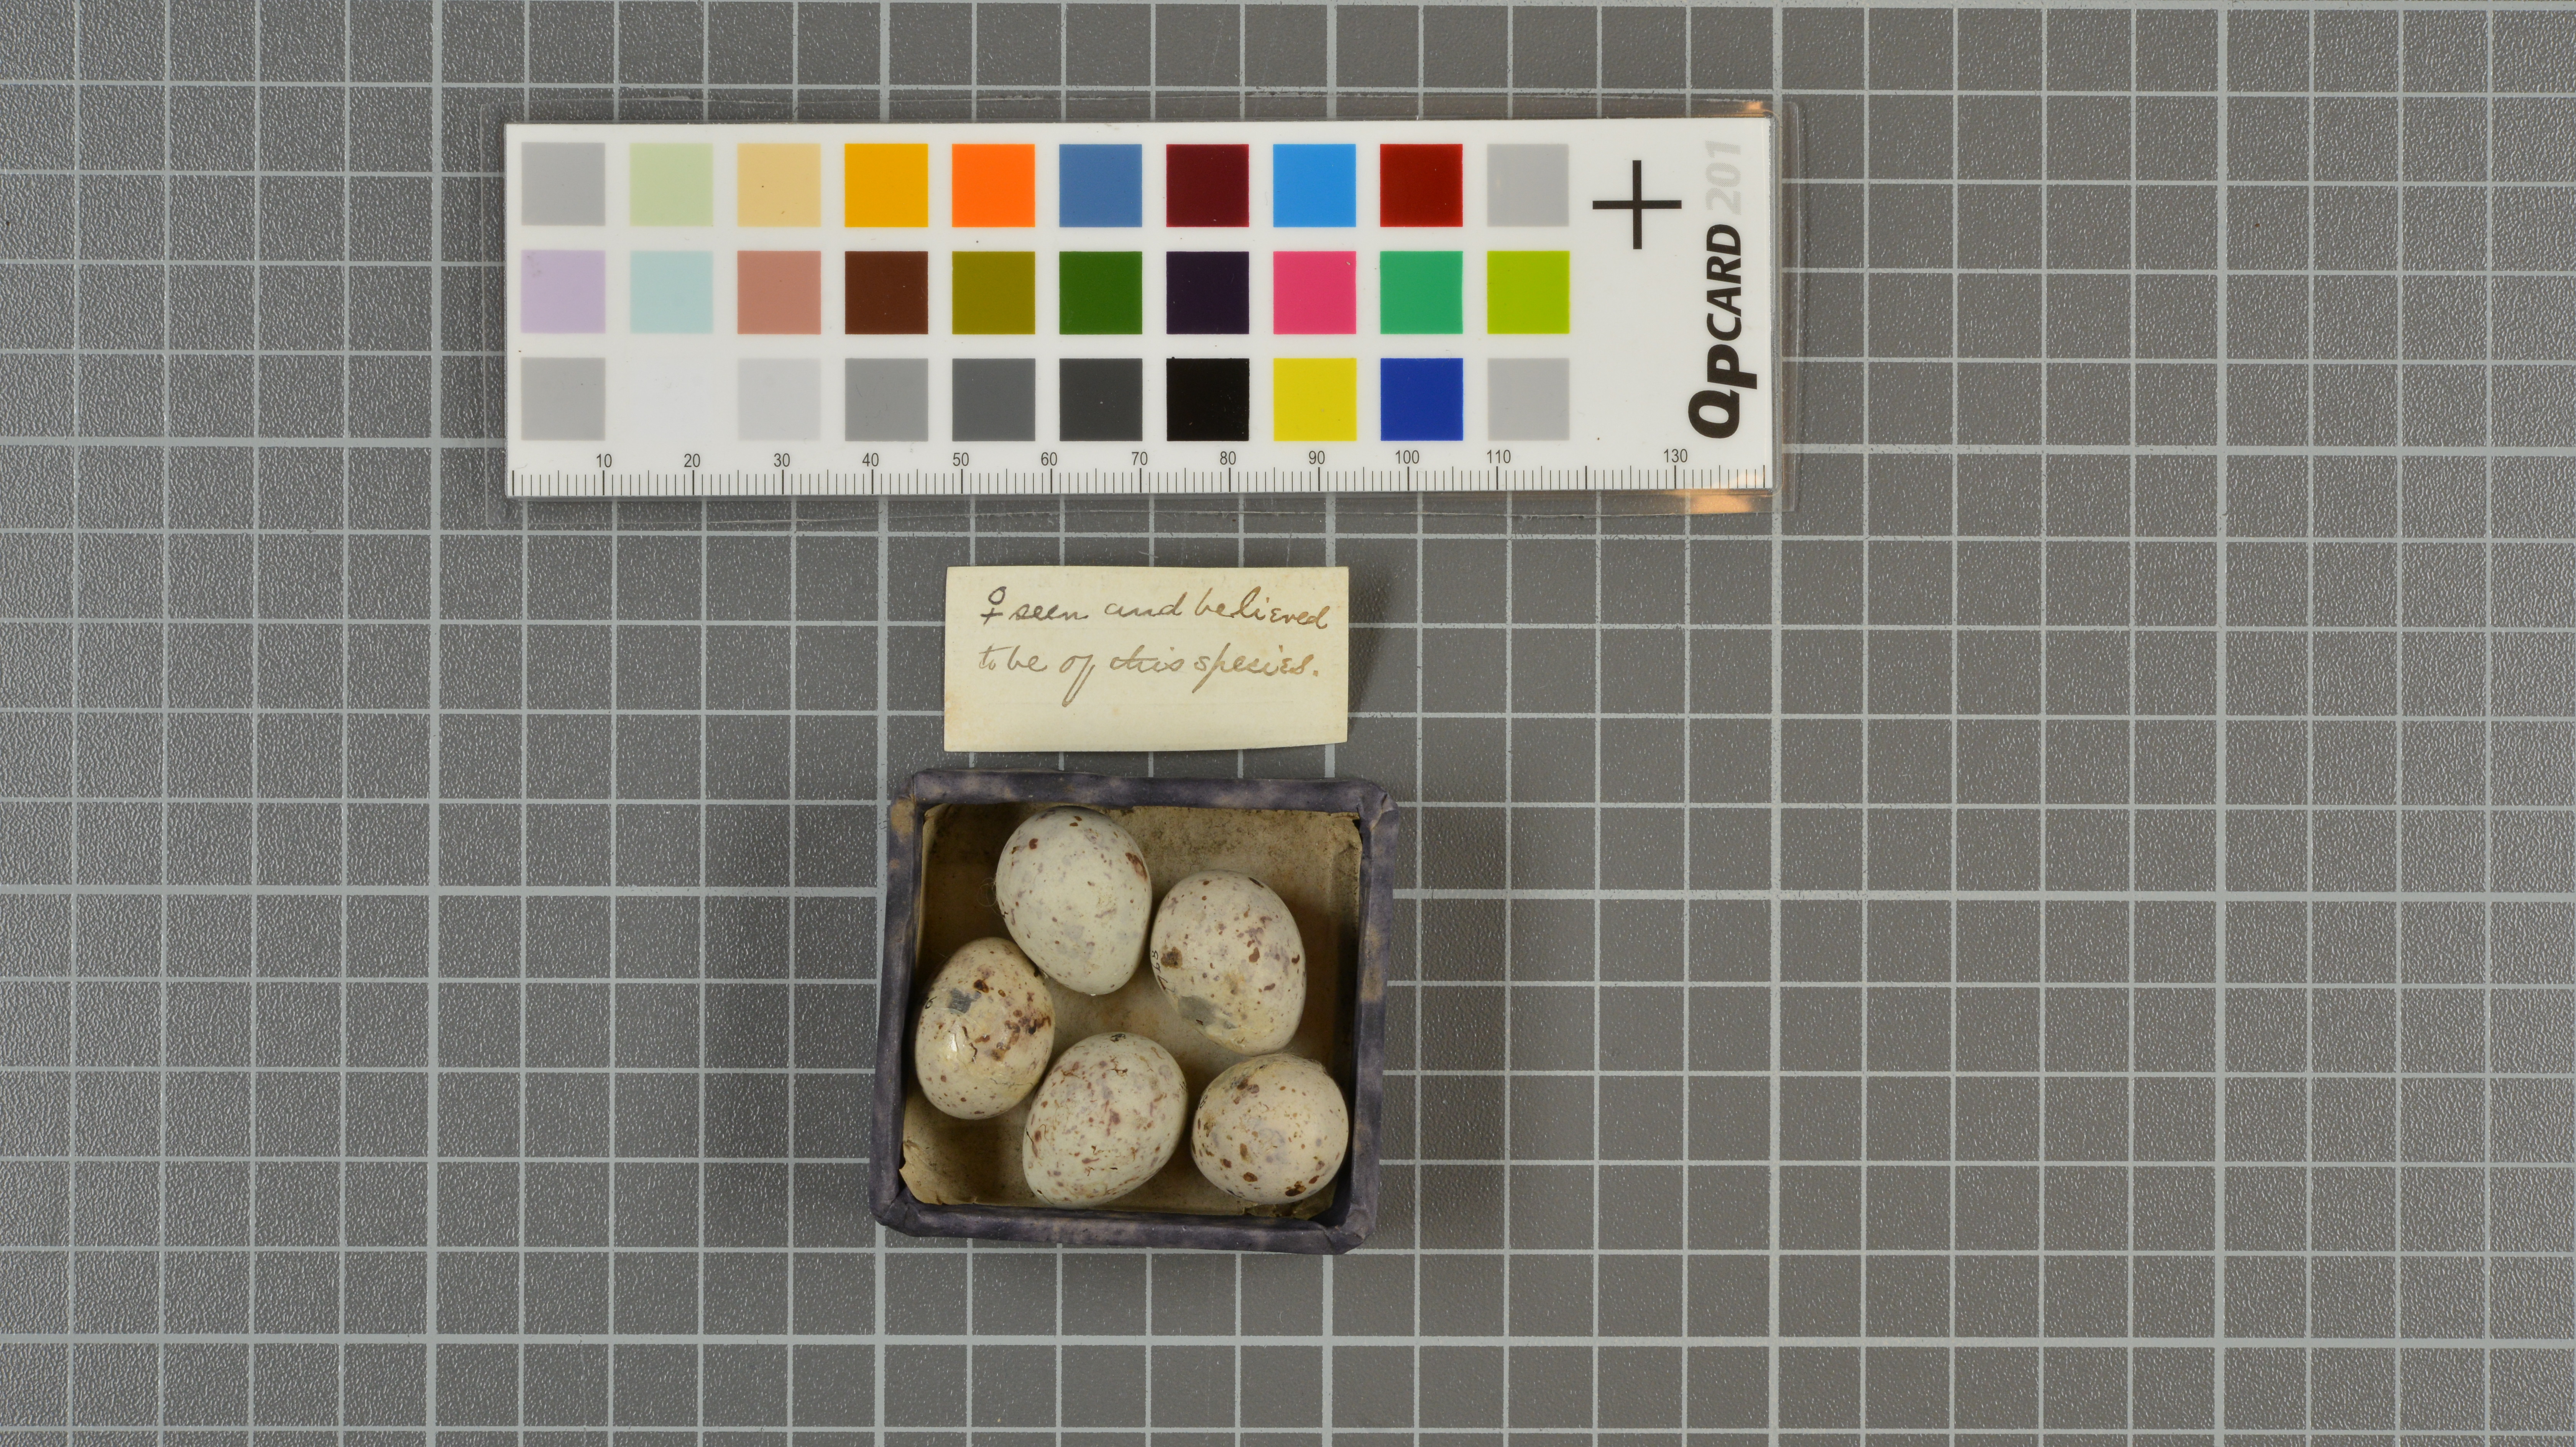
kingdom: Animalia
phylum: Chordata
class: Aves
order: Passeriformes
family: Calcariidae
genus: Calcarius
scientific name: Calcarius pictus
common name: Smith's longspur
